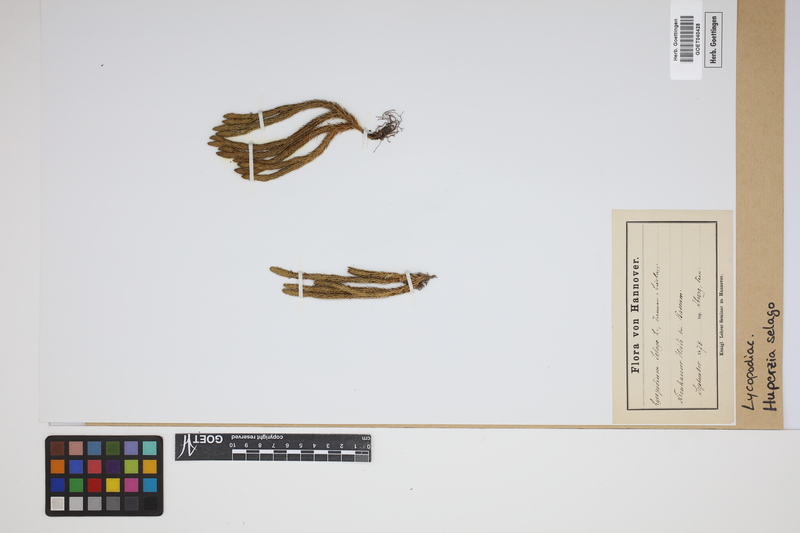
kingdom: Plantae
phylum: Tracheophyta
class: Lycopodiopsida
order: Lycopodiales
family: Lycopodiaceae
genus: Huperzia
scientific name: Huperzia selago
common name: Northern firmoss
